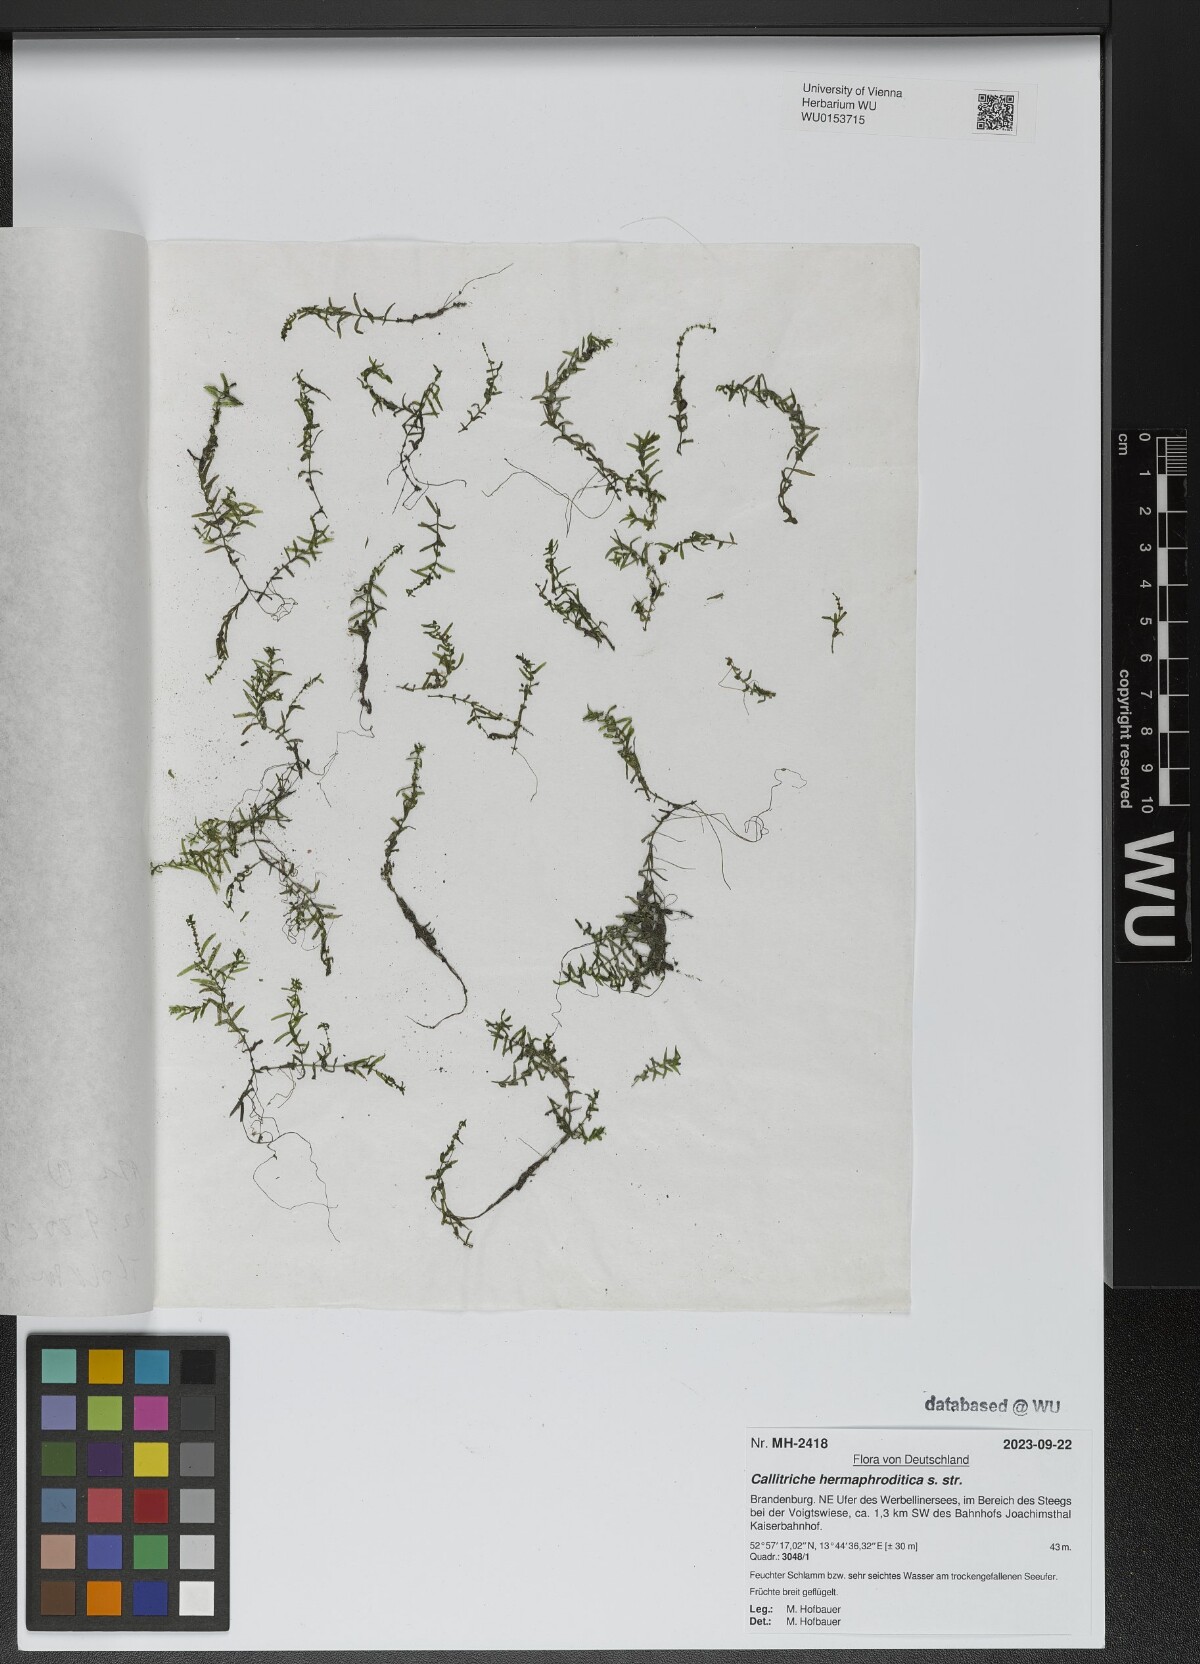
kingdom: Plantae
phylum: Tracheophyta
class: Magnoliopsida
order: Lamiales
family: Plantaginaceae
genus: Callitriche
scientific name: Callitriche hermaphroditica
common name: Autumnal water-starwort
